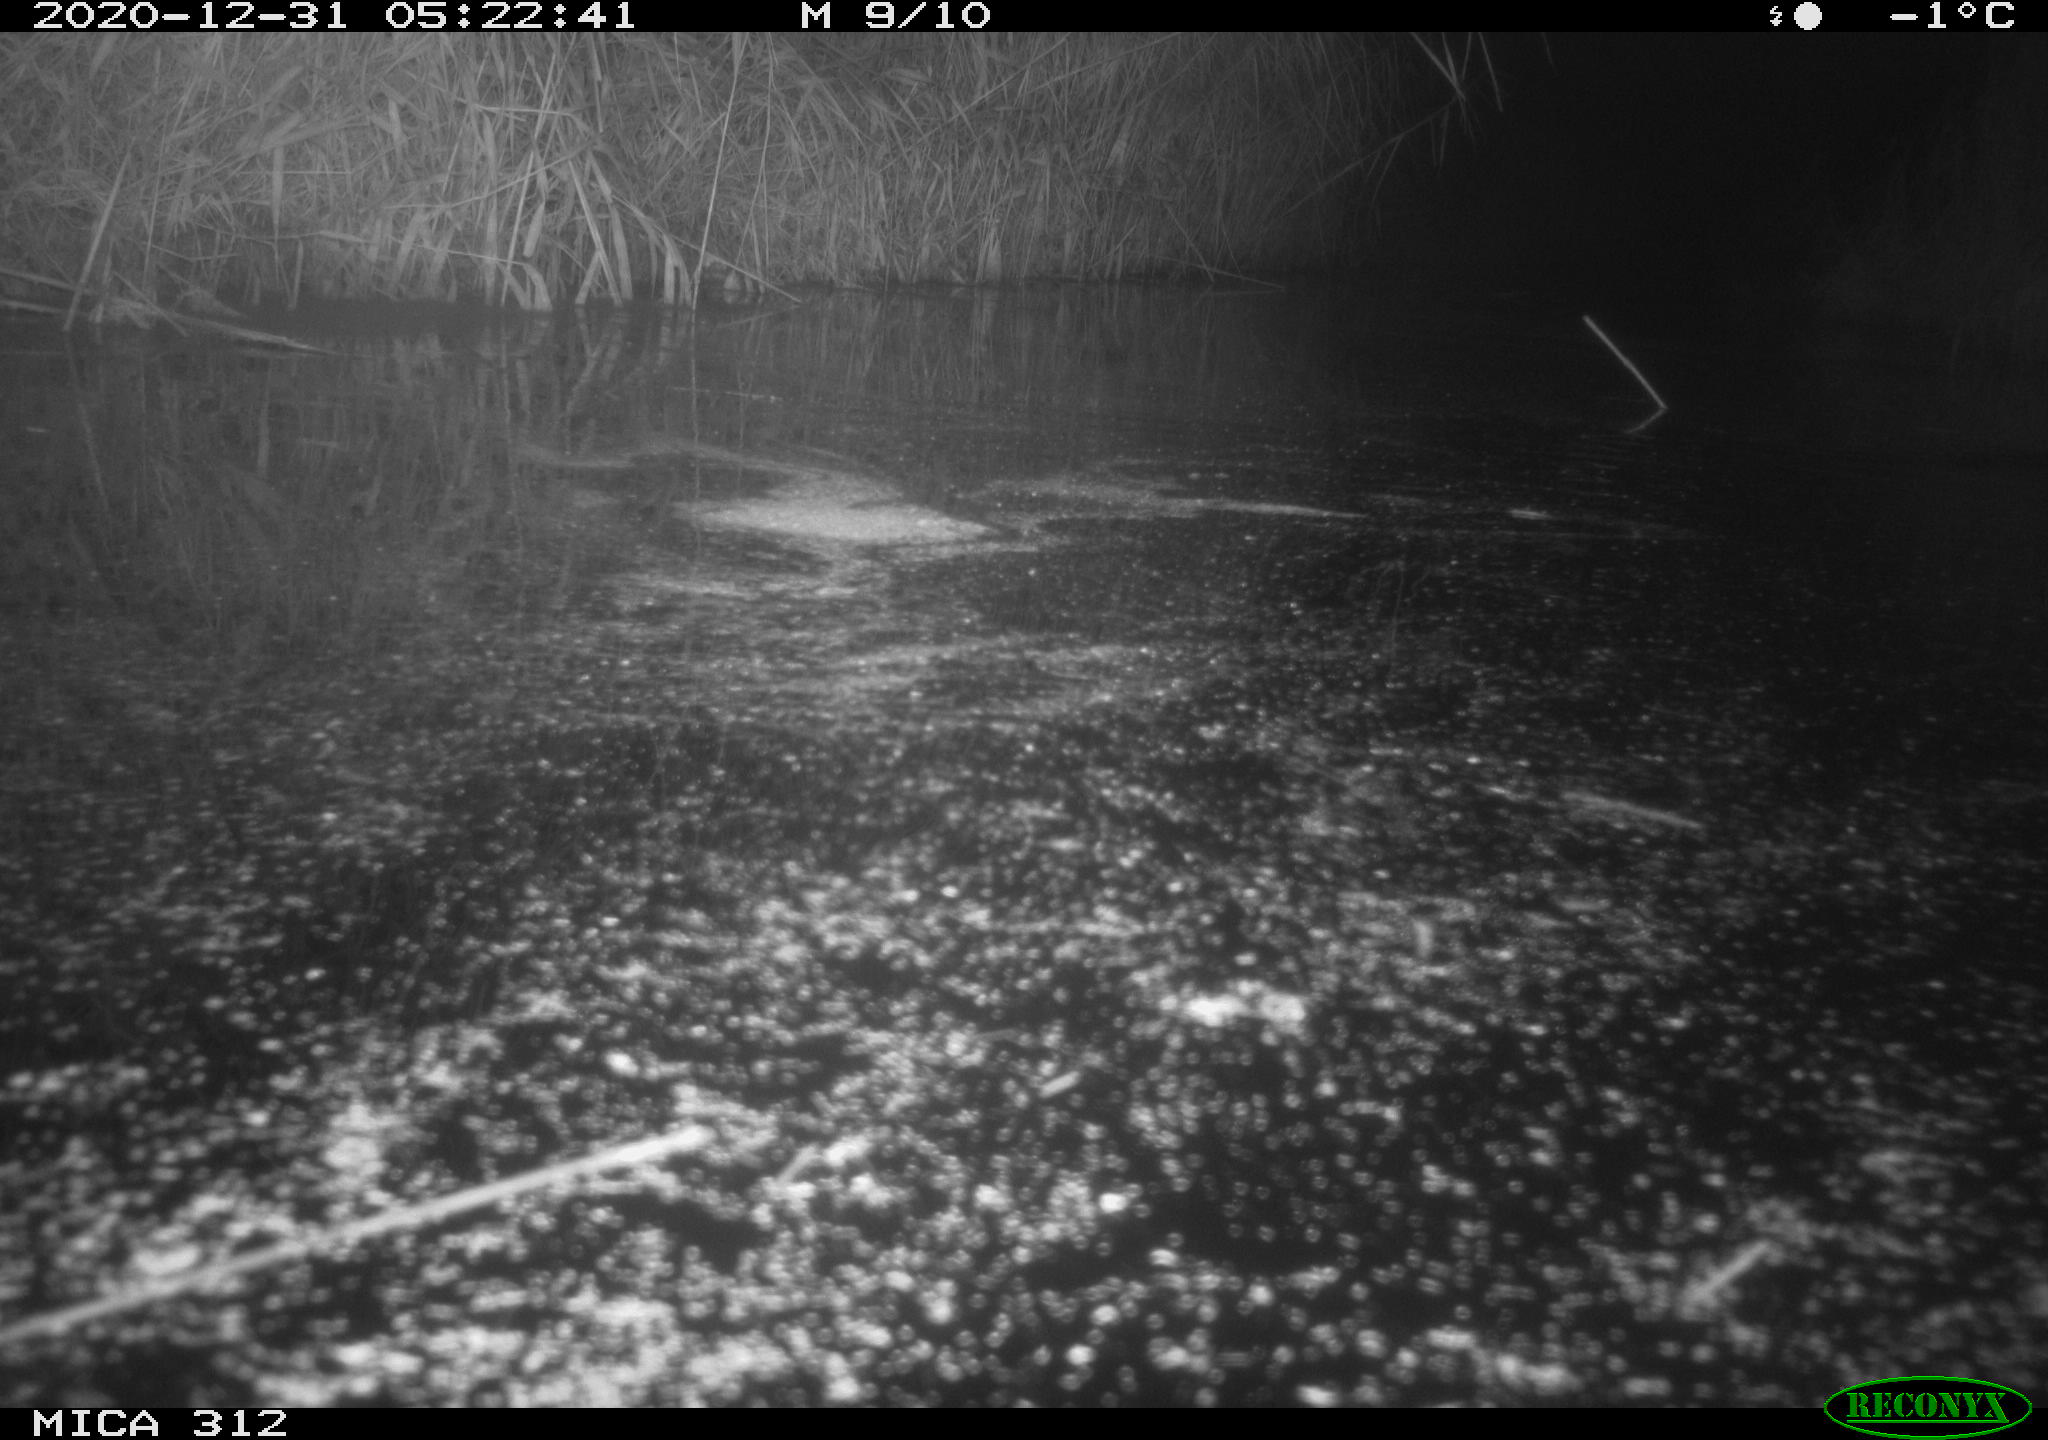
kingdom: Animalia
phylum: Chordata
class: Mammalia
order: Rodentia
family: Muridae
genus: Rattus
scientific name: Rattus norvegicus
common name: Brown rat
